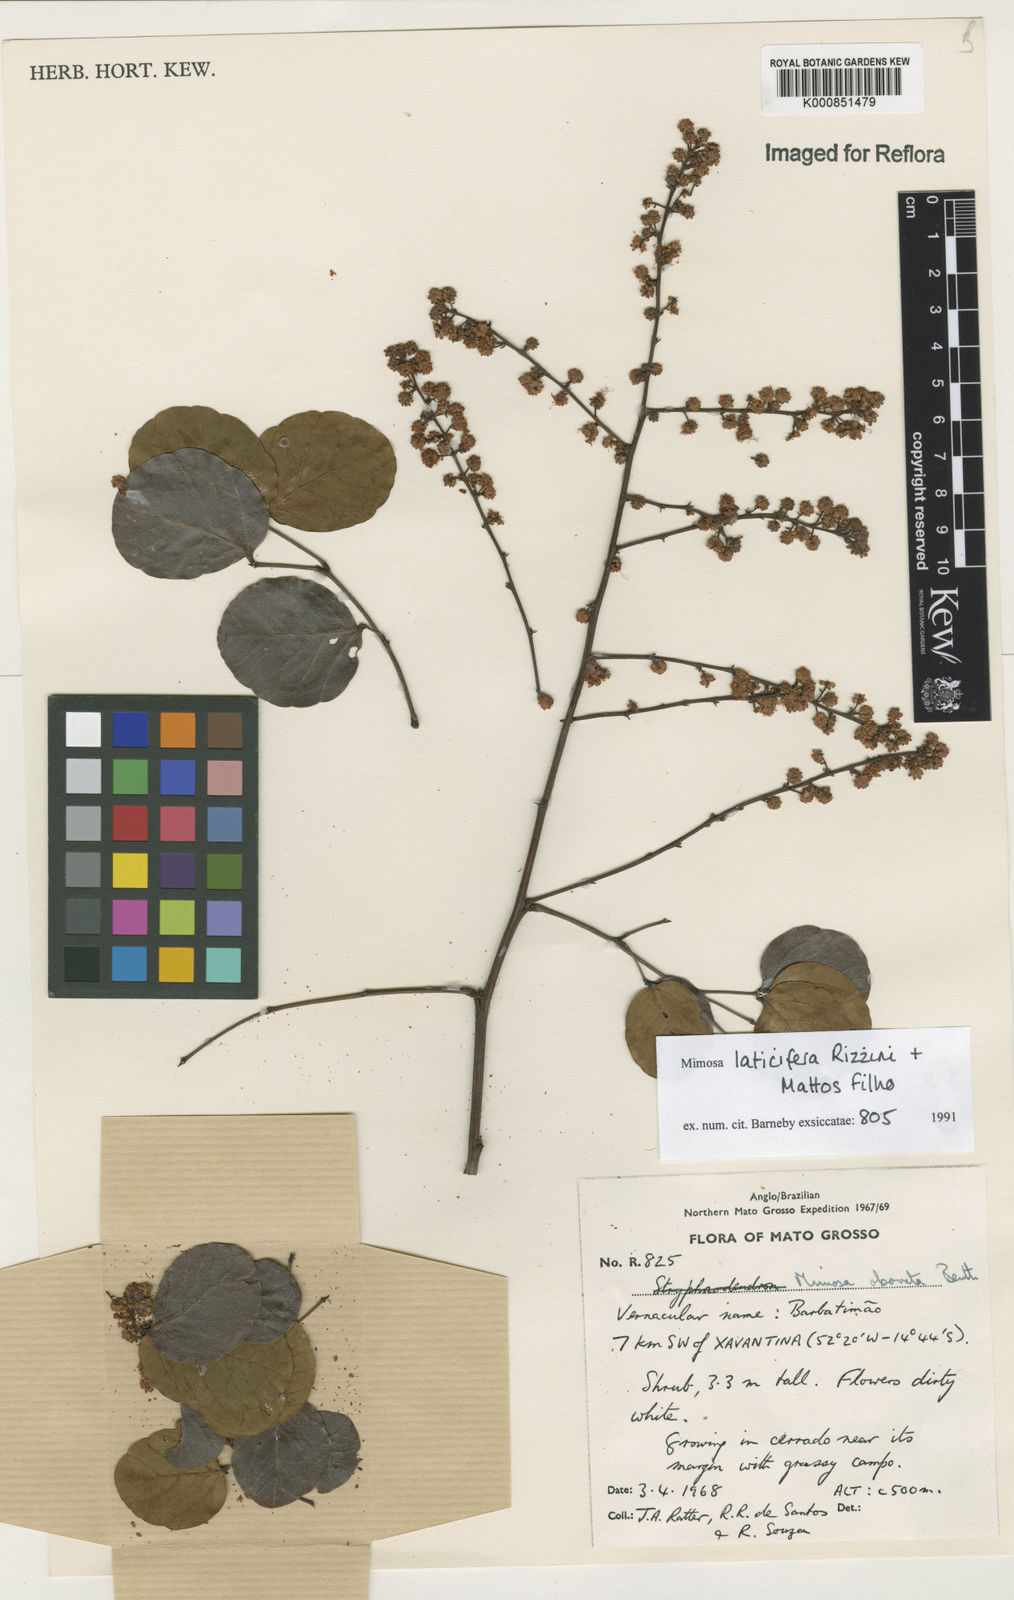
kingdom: Plantae
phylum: Tracheophyta
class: Magnoliopsida
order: Fabales
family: Fabaceae
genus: Mimosa
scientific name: Mimosa laticifera
